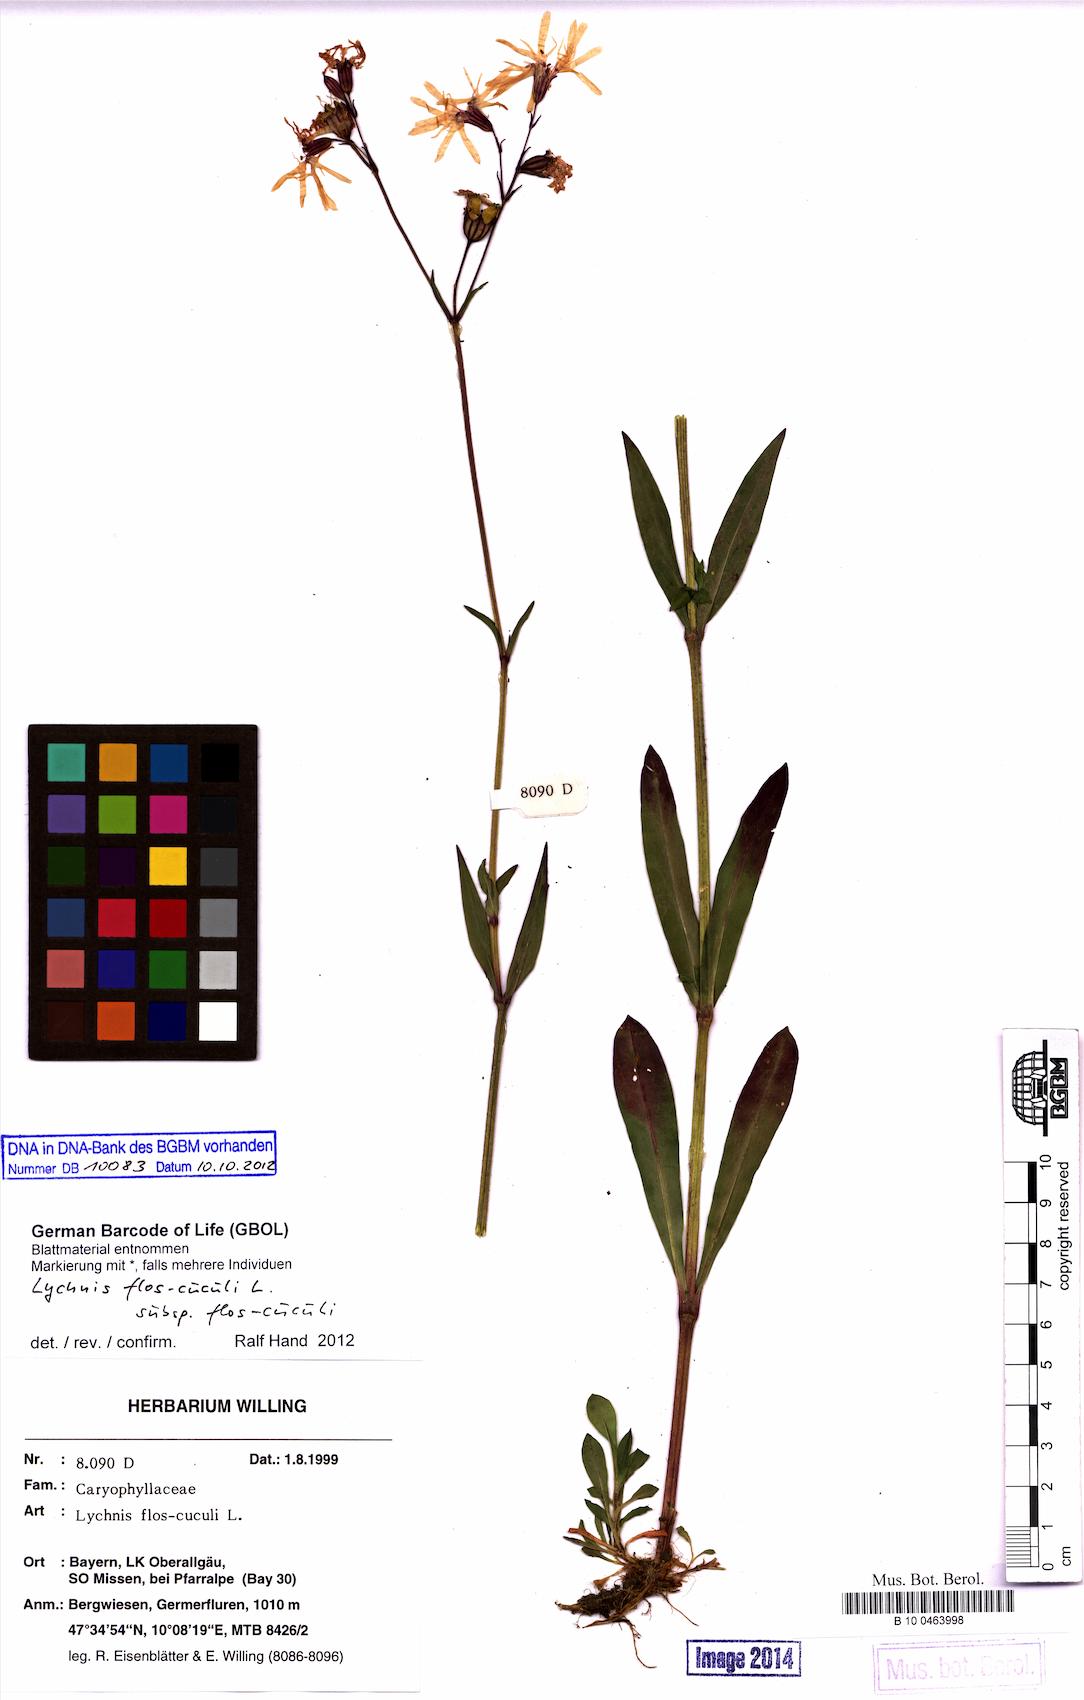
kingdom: Plantae
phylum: Tracheophyta
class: Magnoliopsida
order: Caryophyllales
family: Caryophyllaceae
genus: Silene
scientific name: Silene flos-cuculi
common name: Ragged-robin
